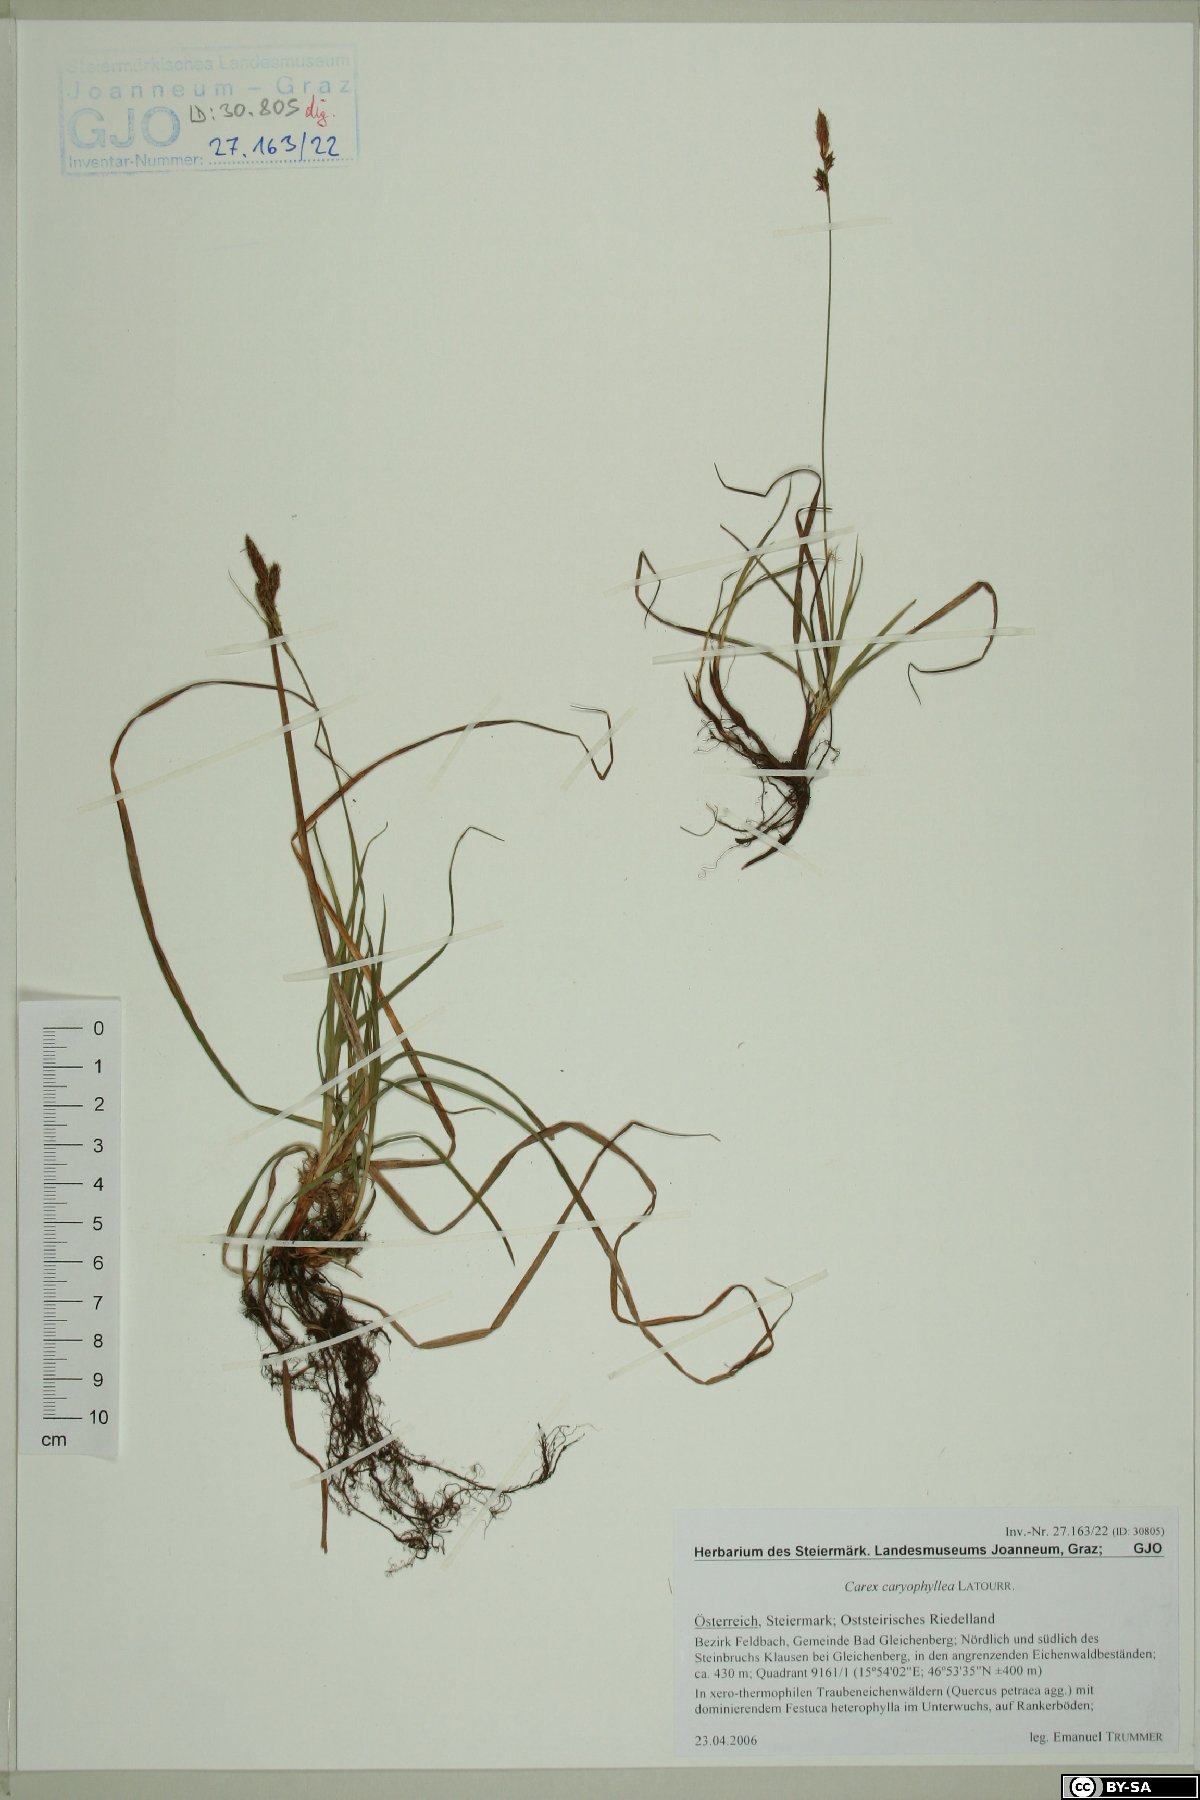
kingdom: Plantae
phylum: Tracheophyta
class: Liliopsida
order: Poales
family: Cyperaceae
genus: Carex
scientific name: Carex caryophyllea
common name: Spring sedge
